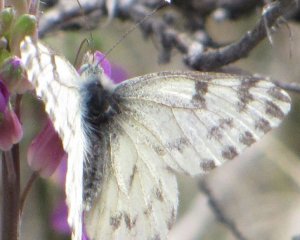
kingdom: Animalia
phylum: Arthropoda
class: Insecta
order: Lepidoptera
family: Pieridae
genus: Pontia
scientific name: Pontia sisymbrii
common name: Spring White
